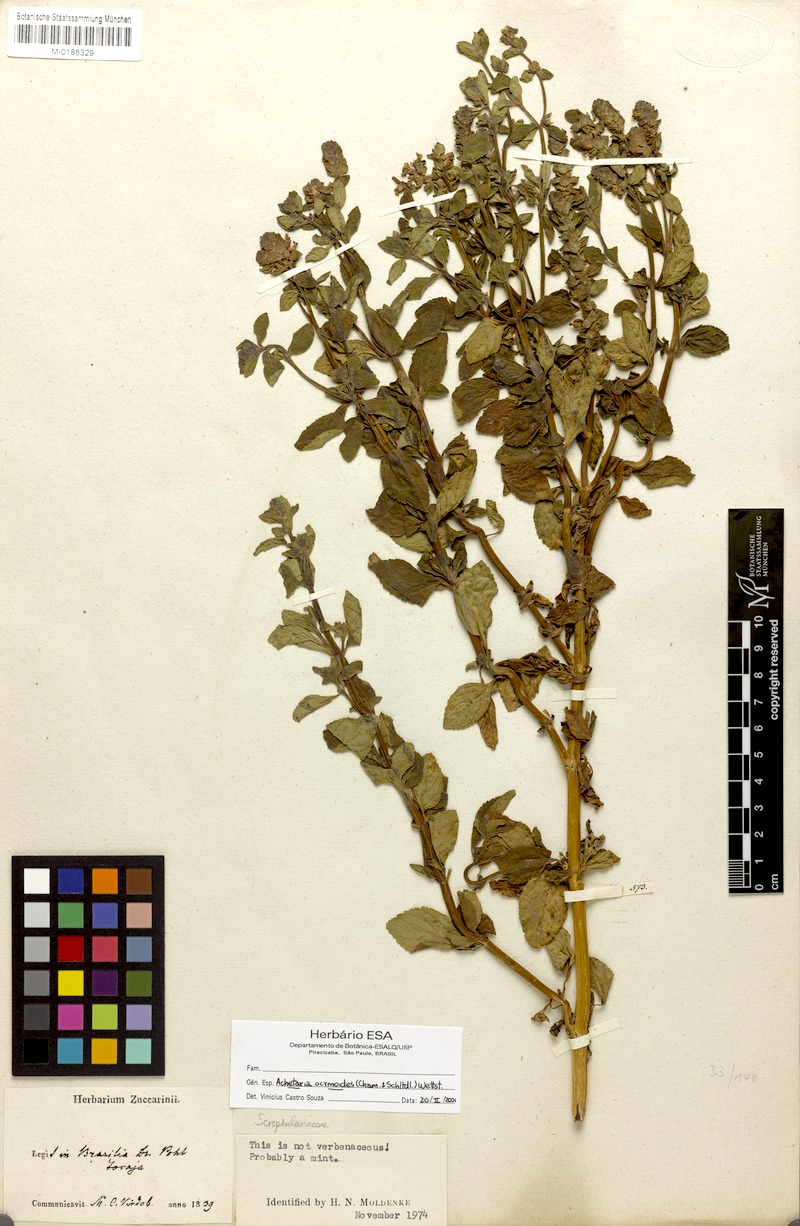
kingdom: Plantae
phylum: Tracheophyta
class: Magnoliopsida
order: Lamiales
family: Plantaginaceae
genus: Matourea
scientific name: Matourea ocymoides
